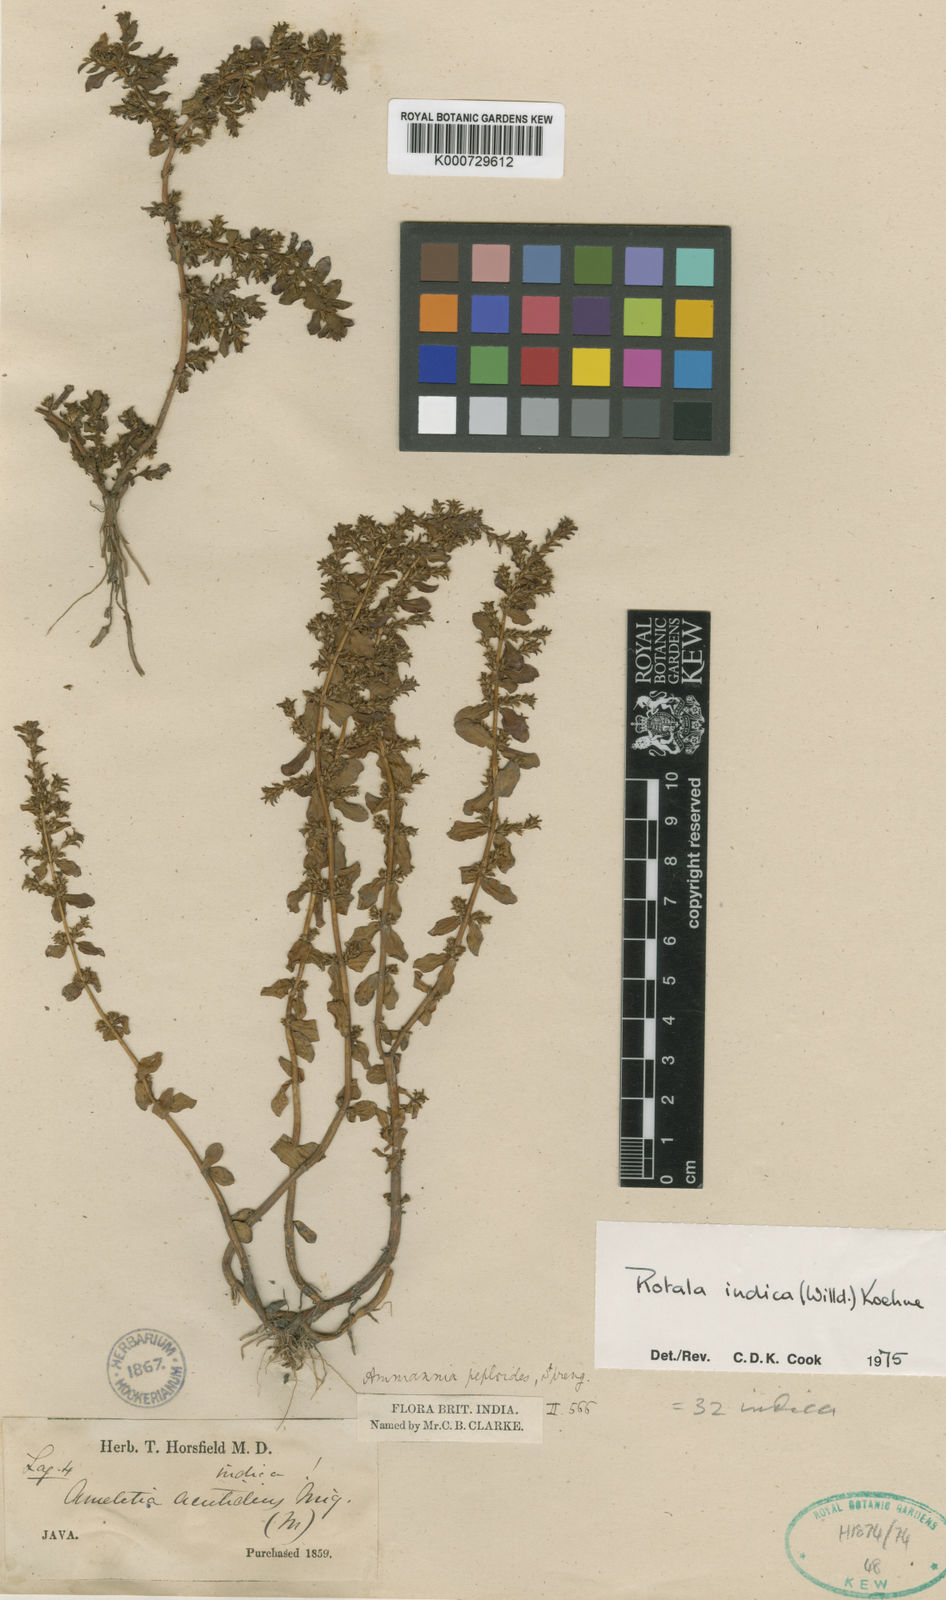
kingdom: Plantae
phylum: Tracheophyta
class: Magnoliopsida
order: Myrtales
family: Lythraceae
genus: Rotala
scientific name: Rotala indica
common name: Indian toothcup
